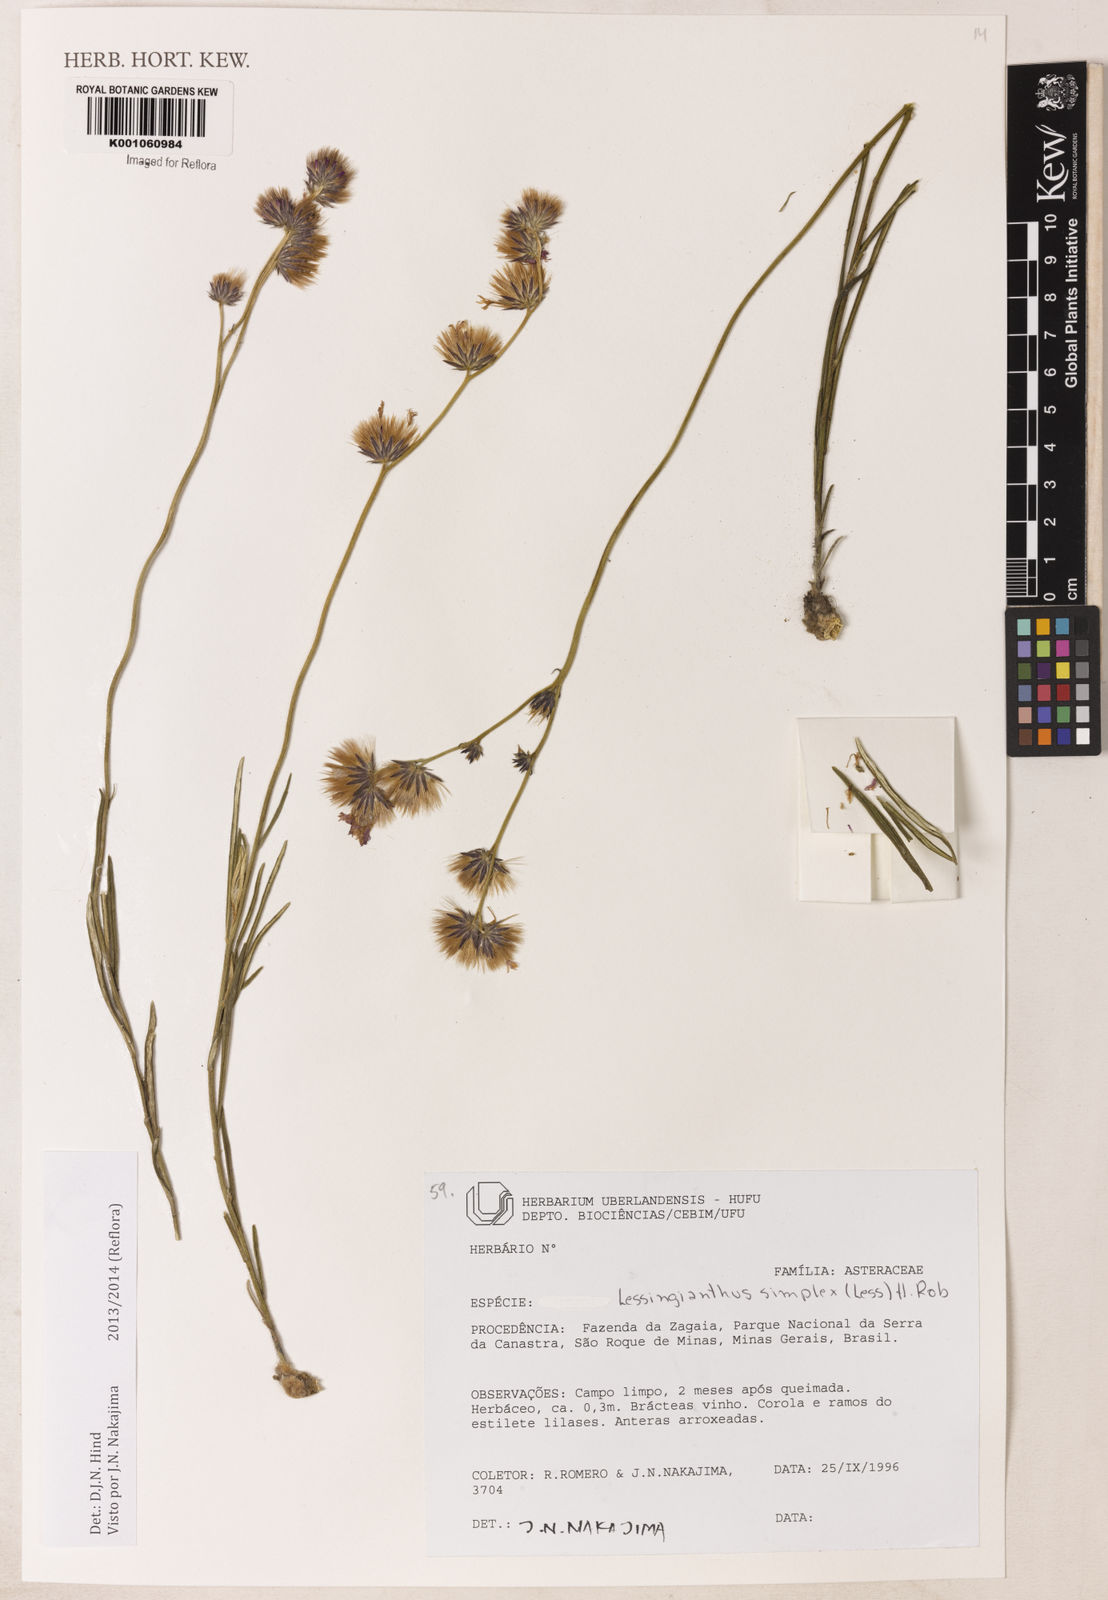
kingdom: Plantae
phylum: Tracheophyta
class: Magnoliopsida
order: Asterales
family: Asteraceae
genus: Chrysolaena
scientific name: Chrysolaena simplex
